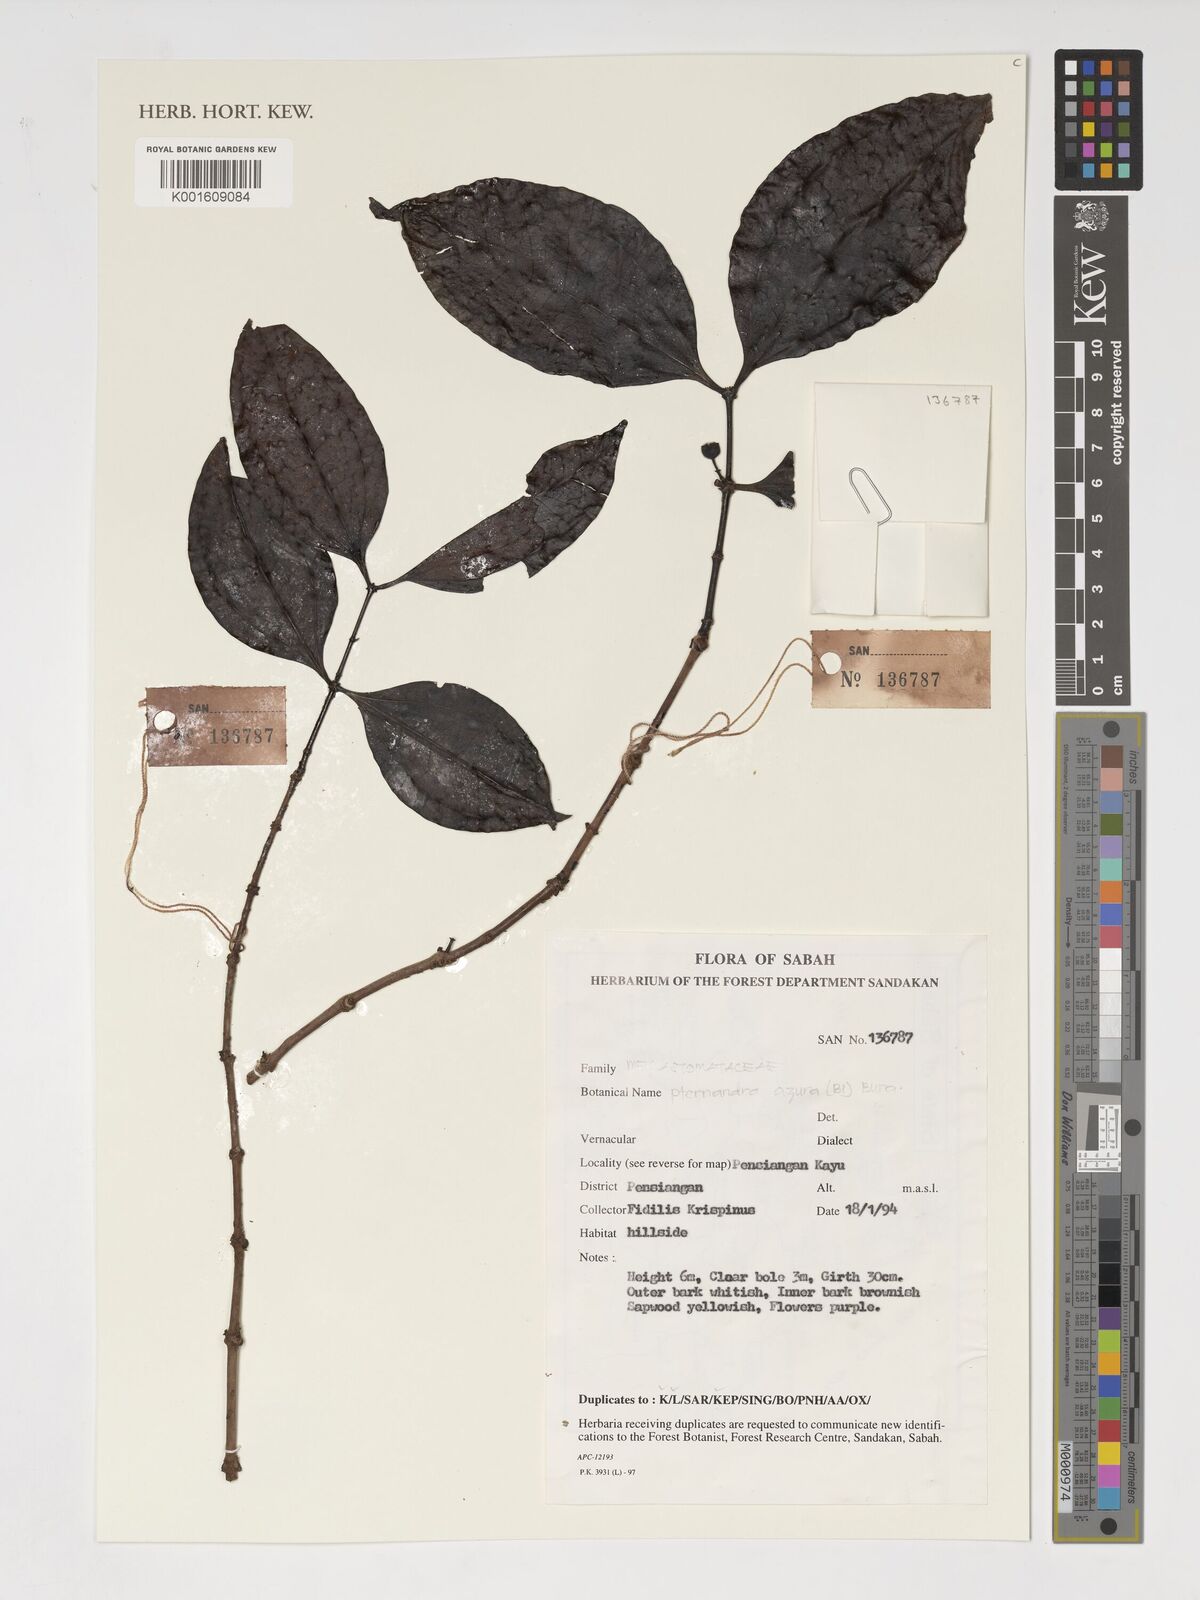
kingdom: Plantae
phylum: Tracheophyta
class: Magnoliopsida
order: Myrtales
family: Melastomataceae
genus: Pternandra
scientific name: Pternandra azurea
